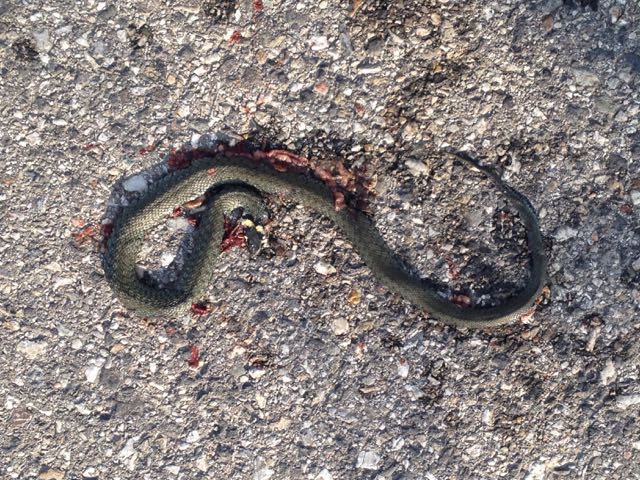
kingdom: Animalia
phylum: Chordata
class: Squamata
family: Colubridae
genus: Natrix
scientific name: Natrix natrix
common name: Grass snake
